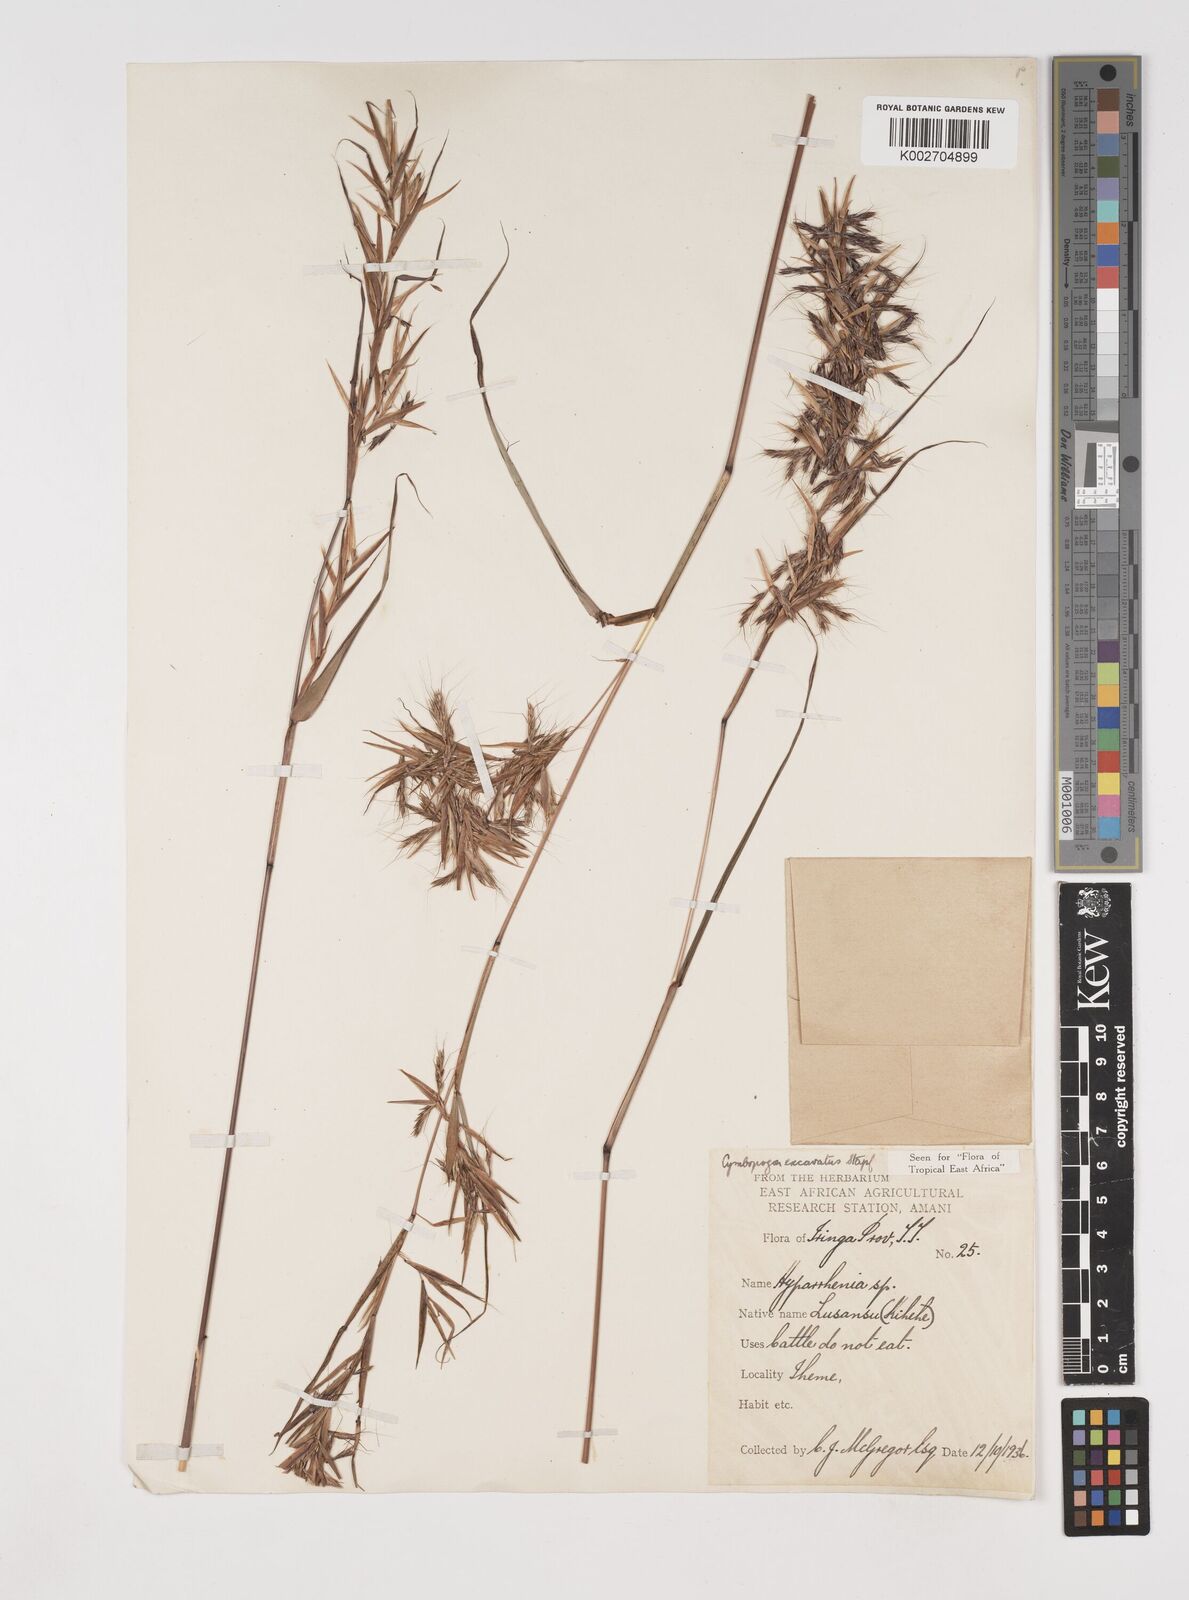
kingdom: Plantae
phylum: Tracheophyta
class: Liliopsida
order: Poales
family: Poaceae
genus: Cymbopogon
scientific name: Cymbopogon caesius
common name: Kachi grass
